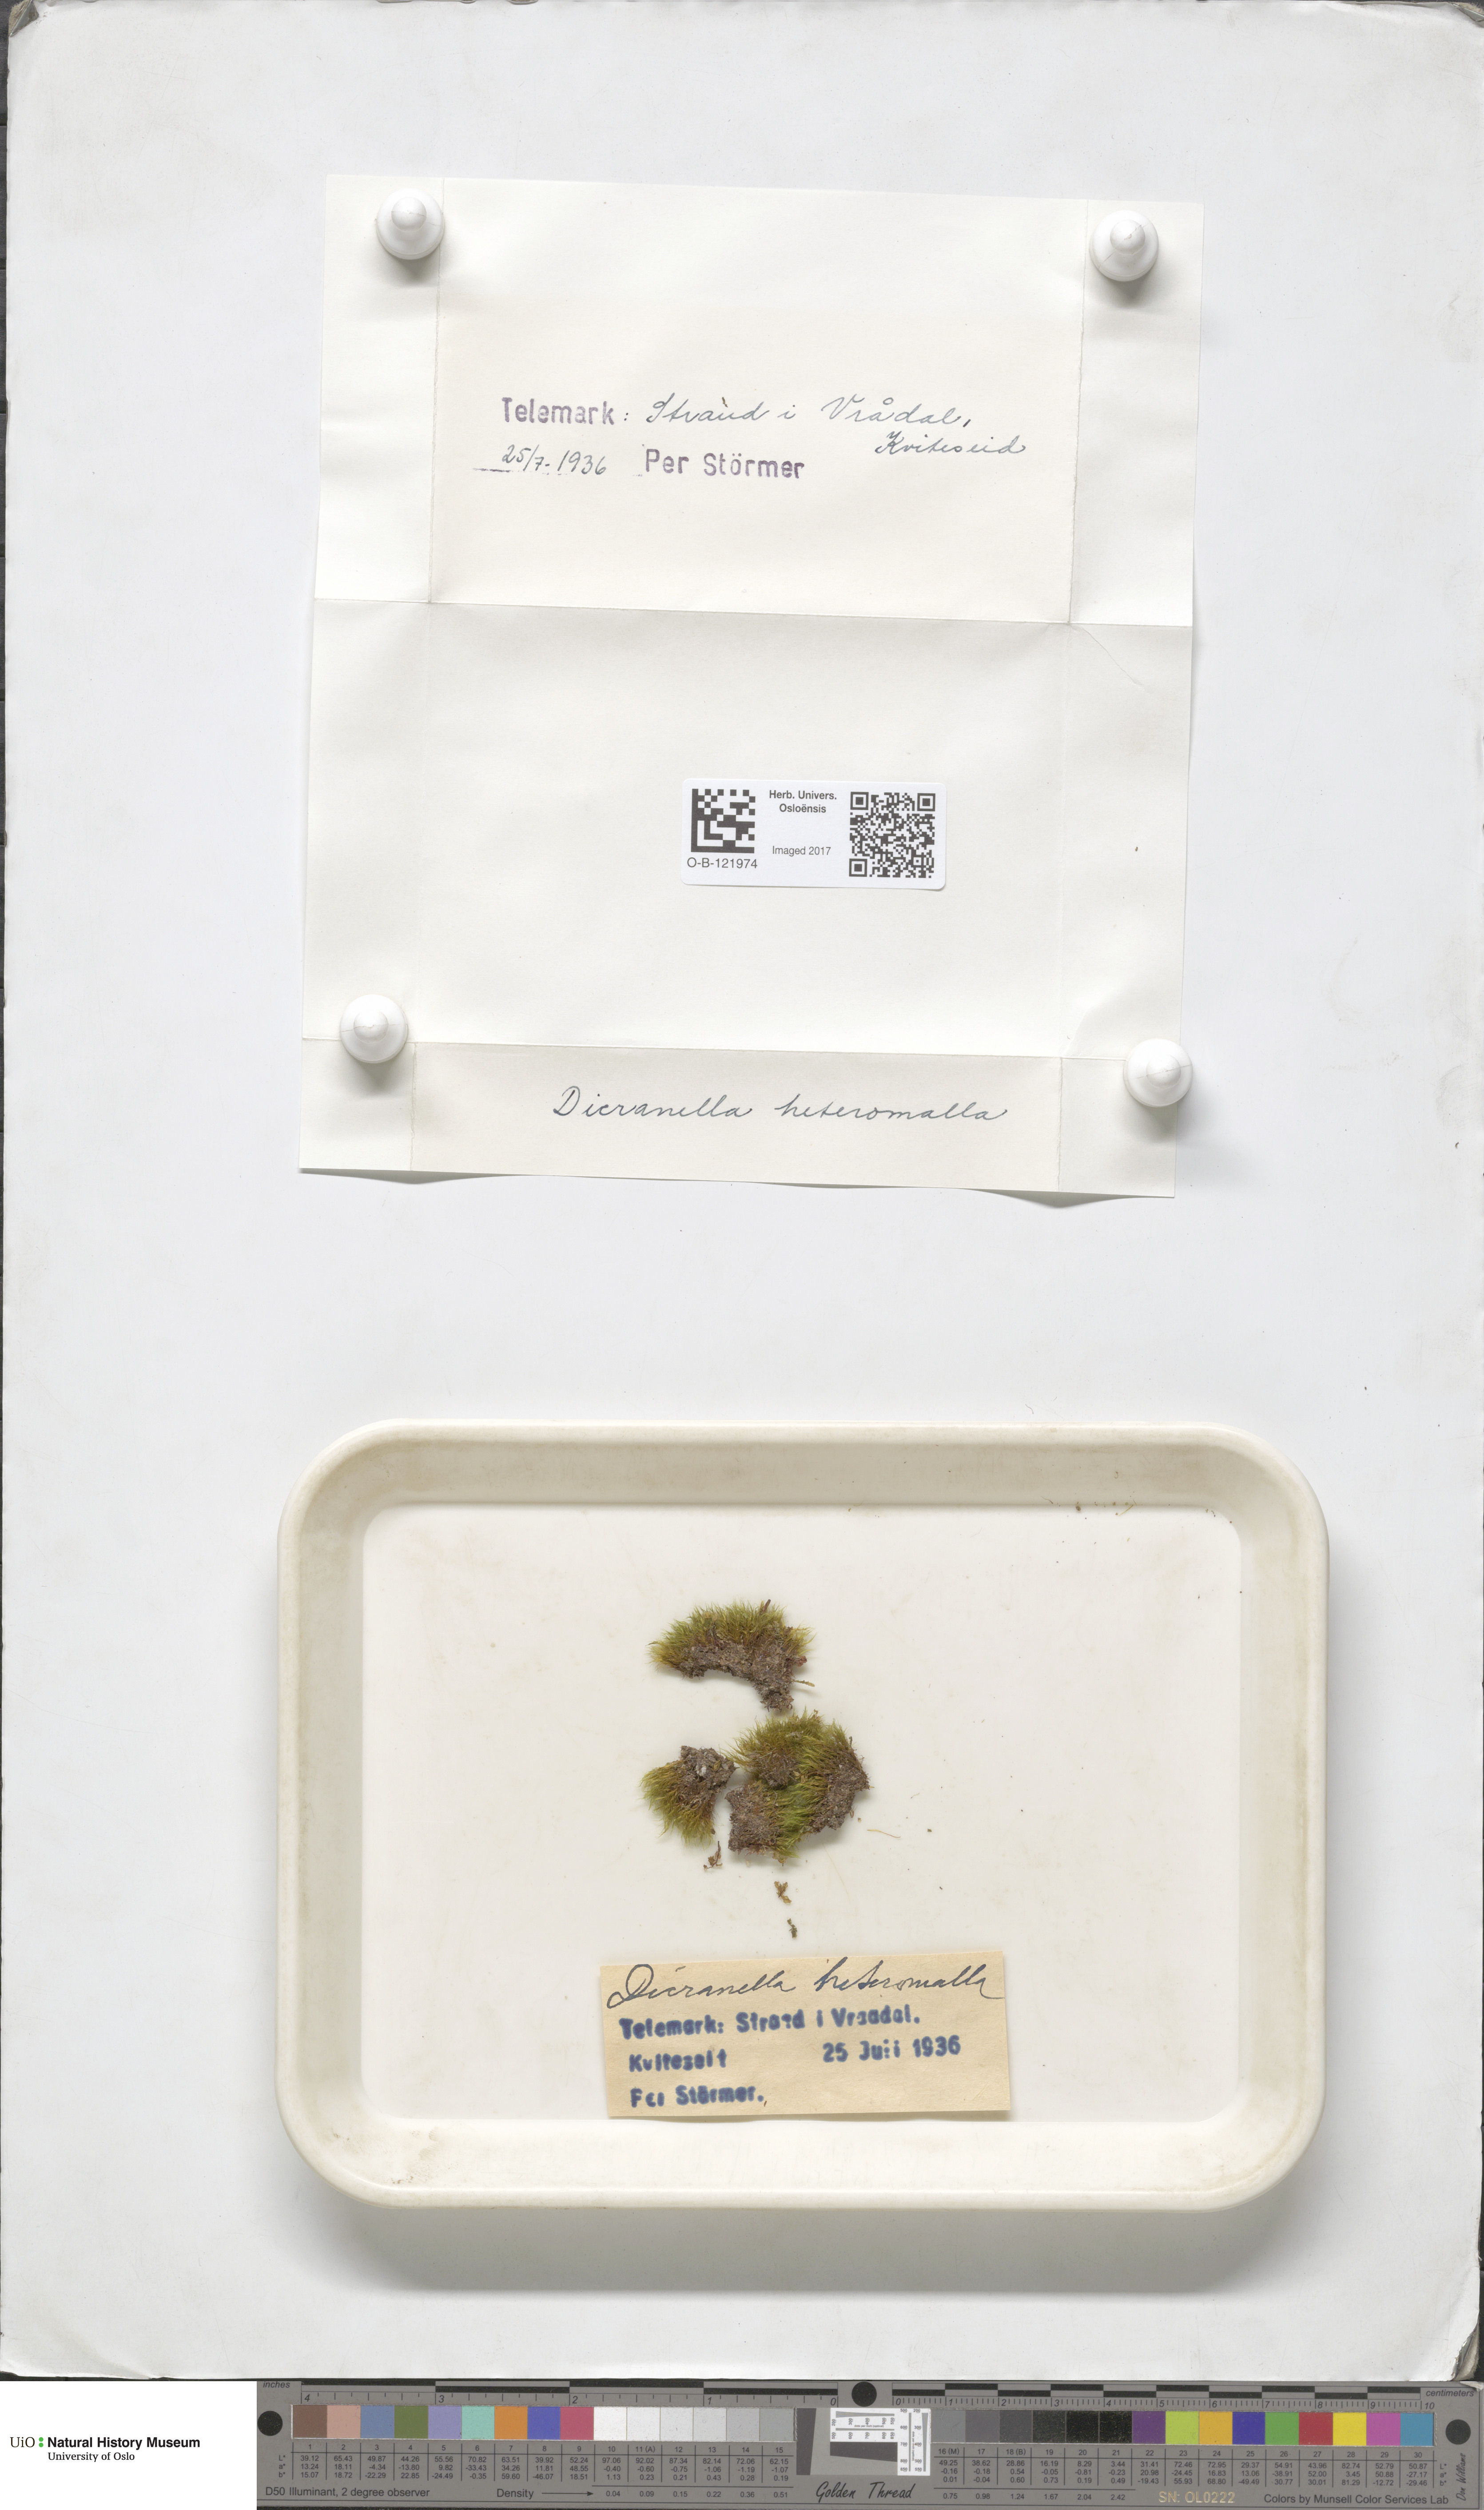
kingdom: Plantae
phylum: Bryophyta
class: Bryopsida
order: Dicranales
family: Dicranellaceae
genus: Dicranella
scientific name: Dicranella heteromalla
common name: Silky forklet moss
